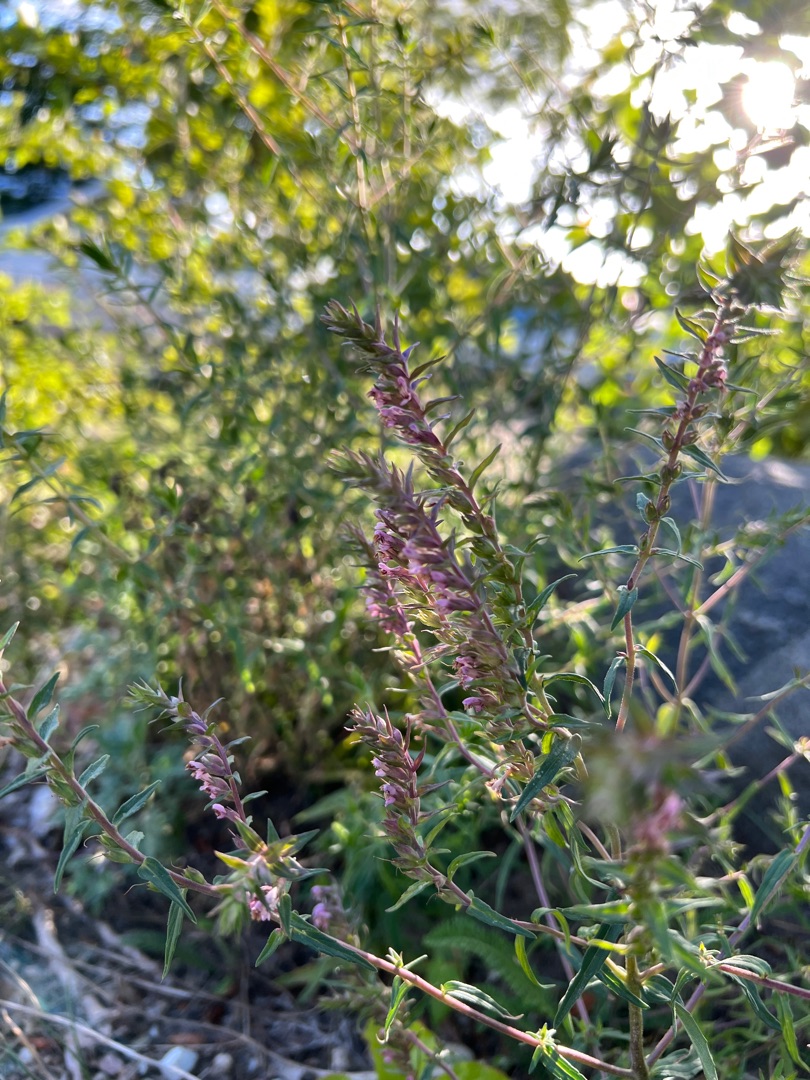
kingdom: Plantae
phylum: Tracheophyta
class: Magnoliopsida
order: Lamiales
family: Orobanchaceae
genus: Odontites
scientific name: Odontites vulgaris
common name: Høst-rødtop
